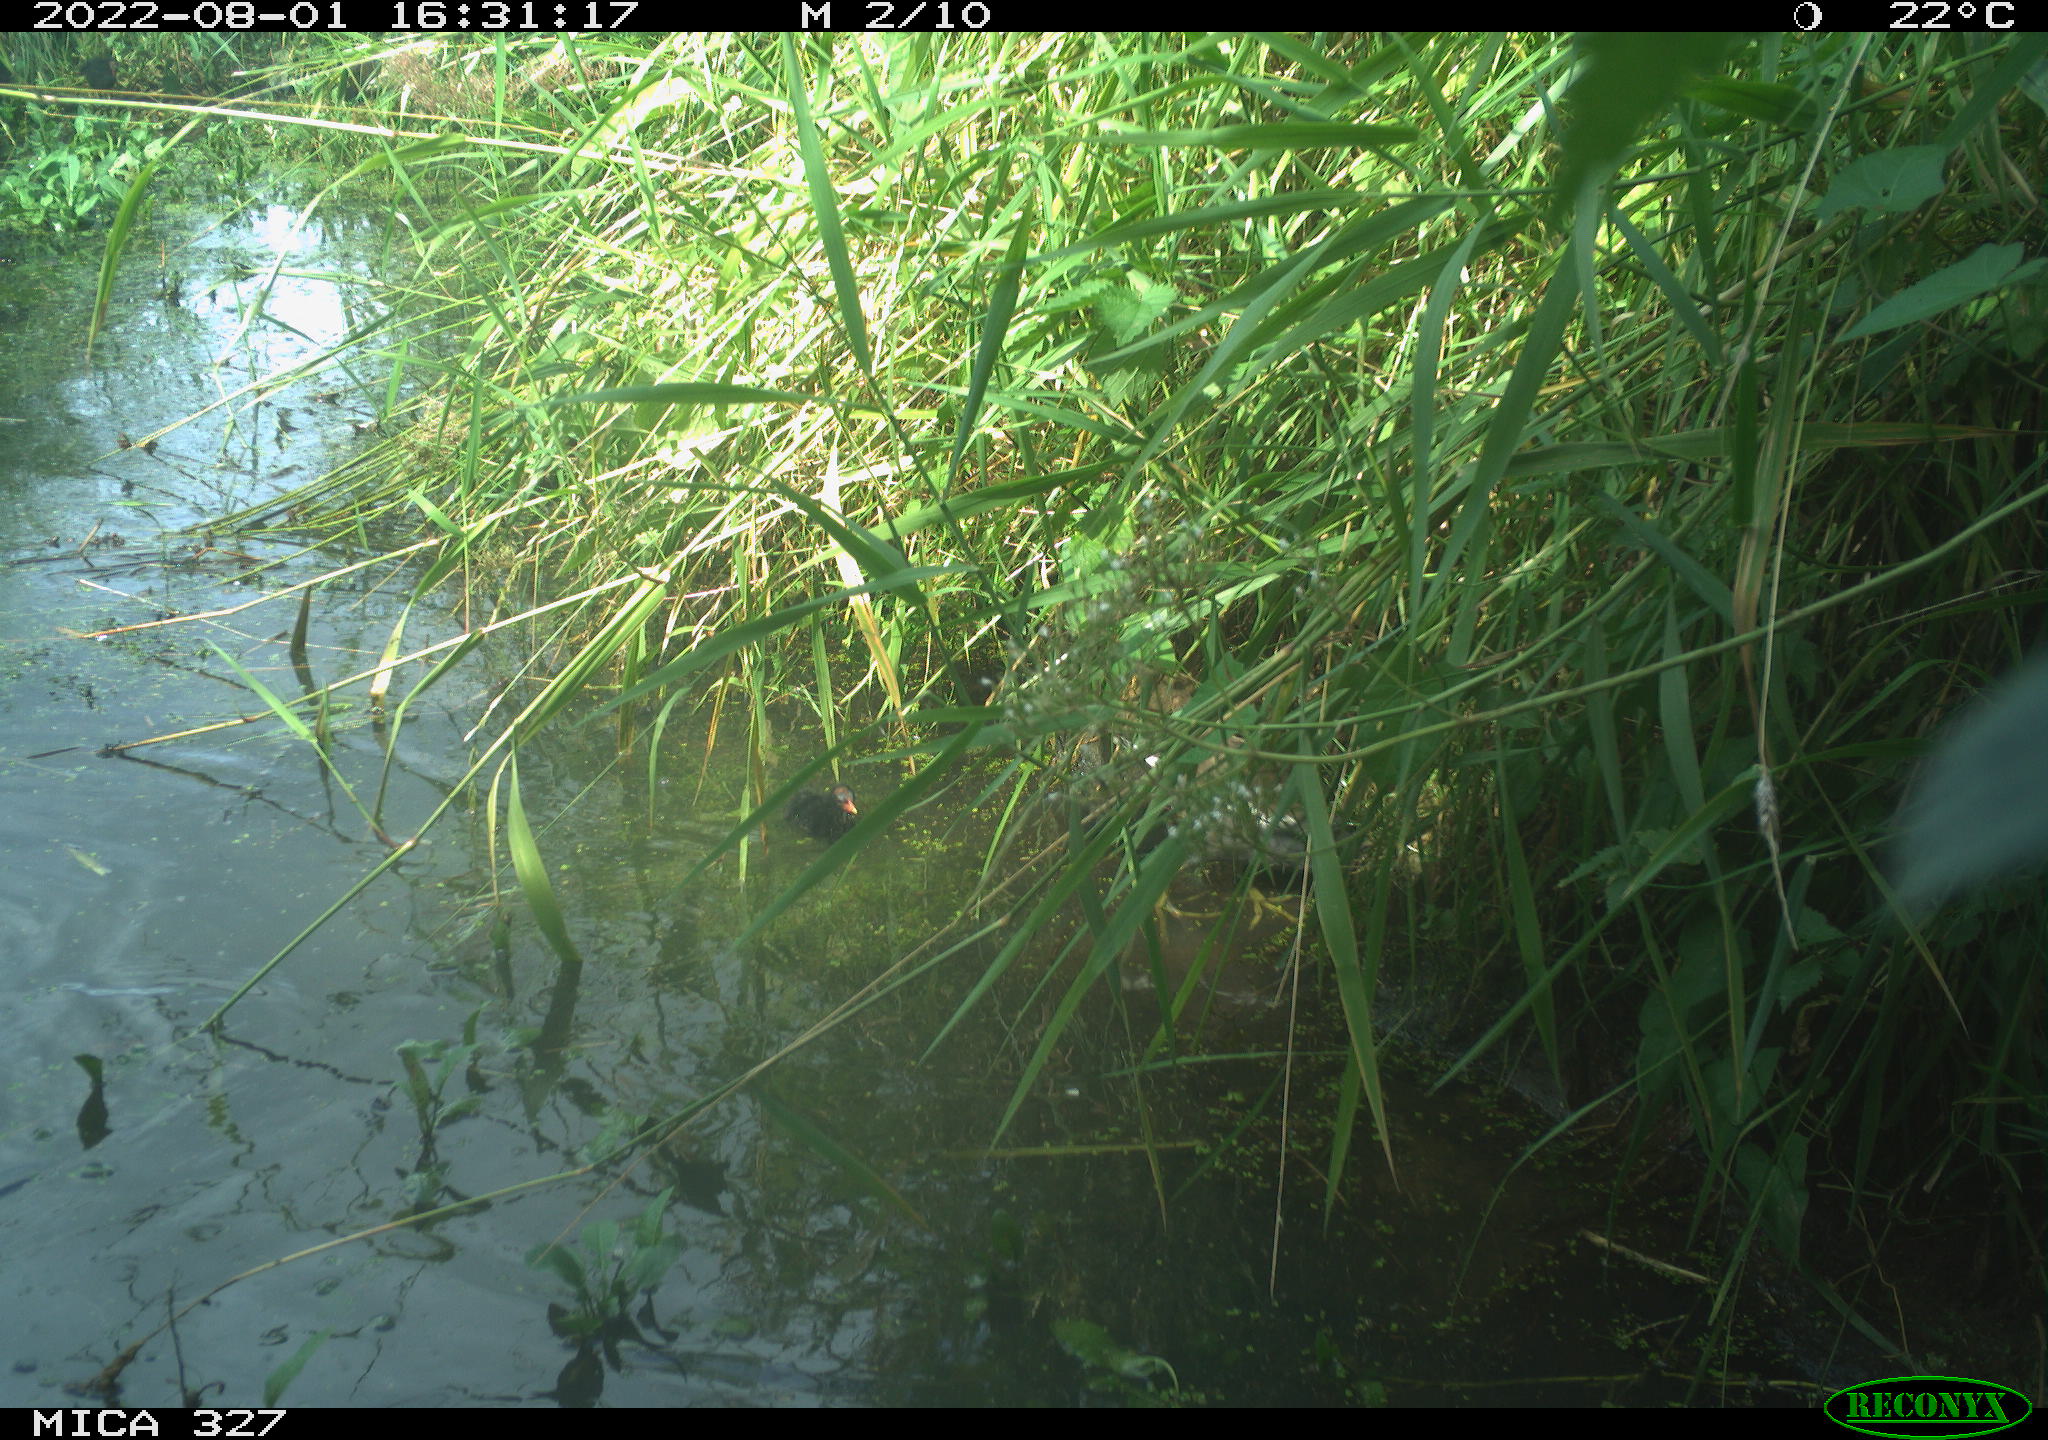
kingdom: Animalia
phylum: Chordata
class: Aves
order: Gruiformes
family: Rallidae
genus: Gallinula
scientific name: Gallinula chloropus
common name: Common moorhen
